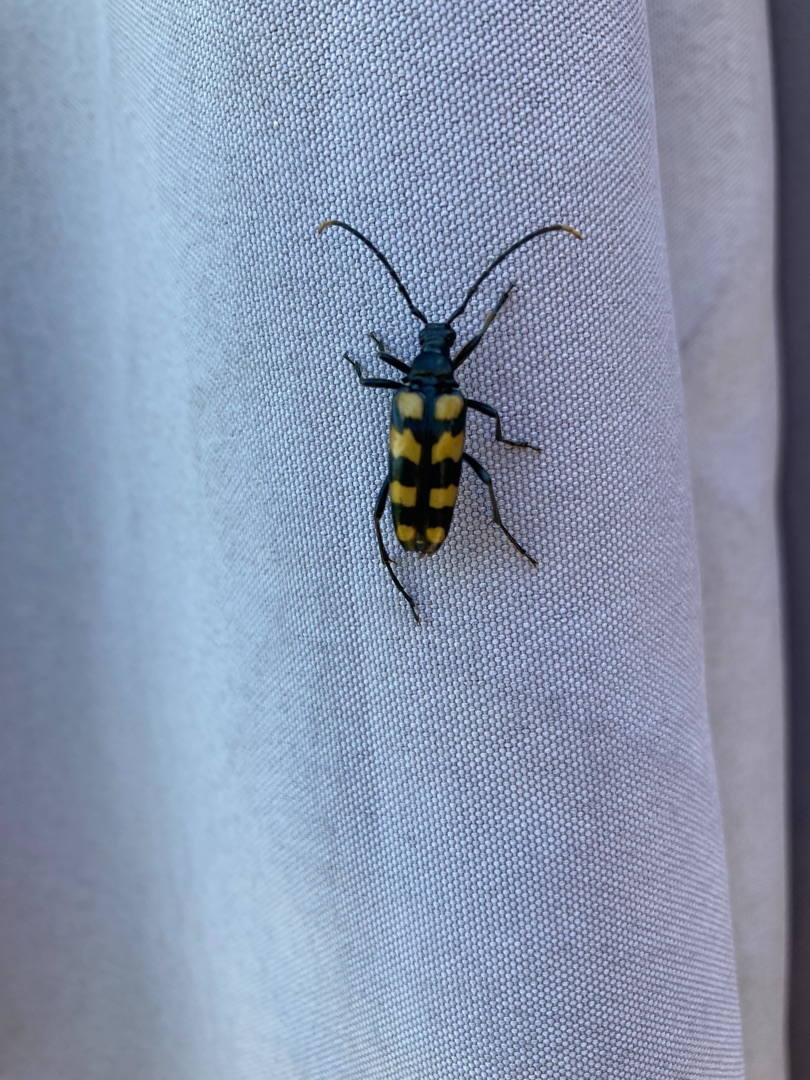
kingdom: Animalia
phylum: Arthropoda
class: Insecta
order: Coleoptera
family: Cerambycidae
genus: Leptura
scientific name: Leptura quadrifasciata
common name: Firebåndet blomsterbuk
